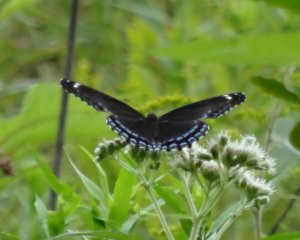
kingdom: Animalia
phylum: Arthropoda
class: Insecta
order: Lepidoptera
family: Nymphalidae
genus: Limenitis
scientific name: Limenitis astyanax
